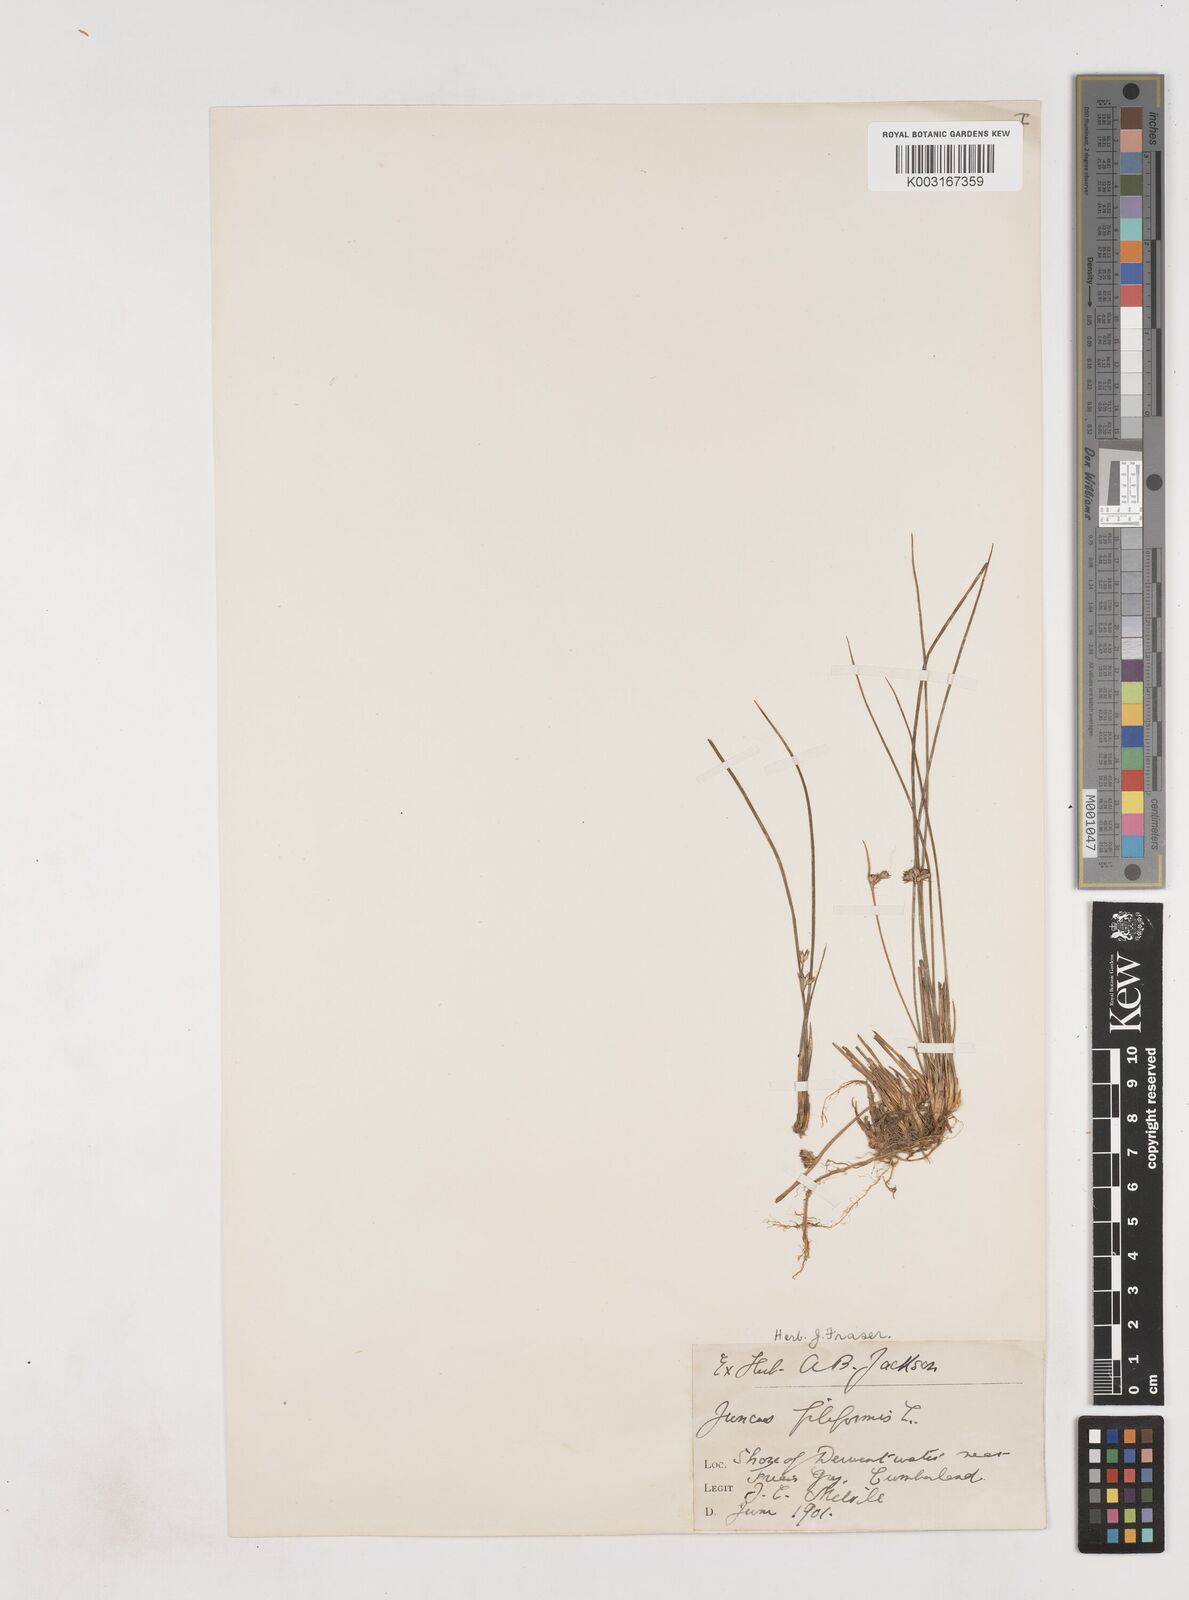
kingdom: Plantae
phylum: Tracheophyta
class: Liliopsida
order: Poales
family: Juncaceae
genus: Juncus
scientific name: Juncus filiformis
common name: Thread rush
